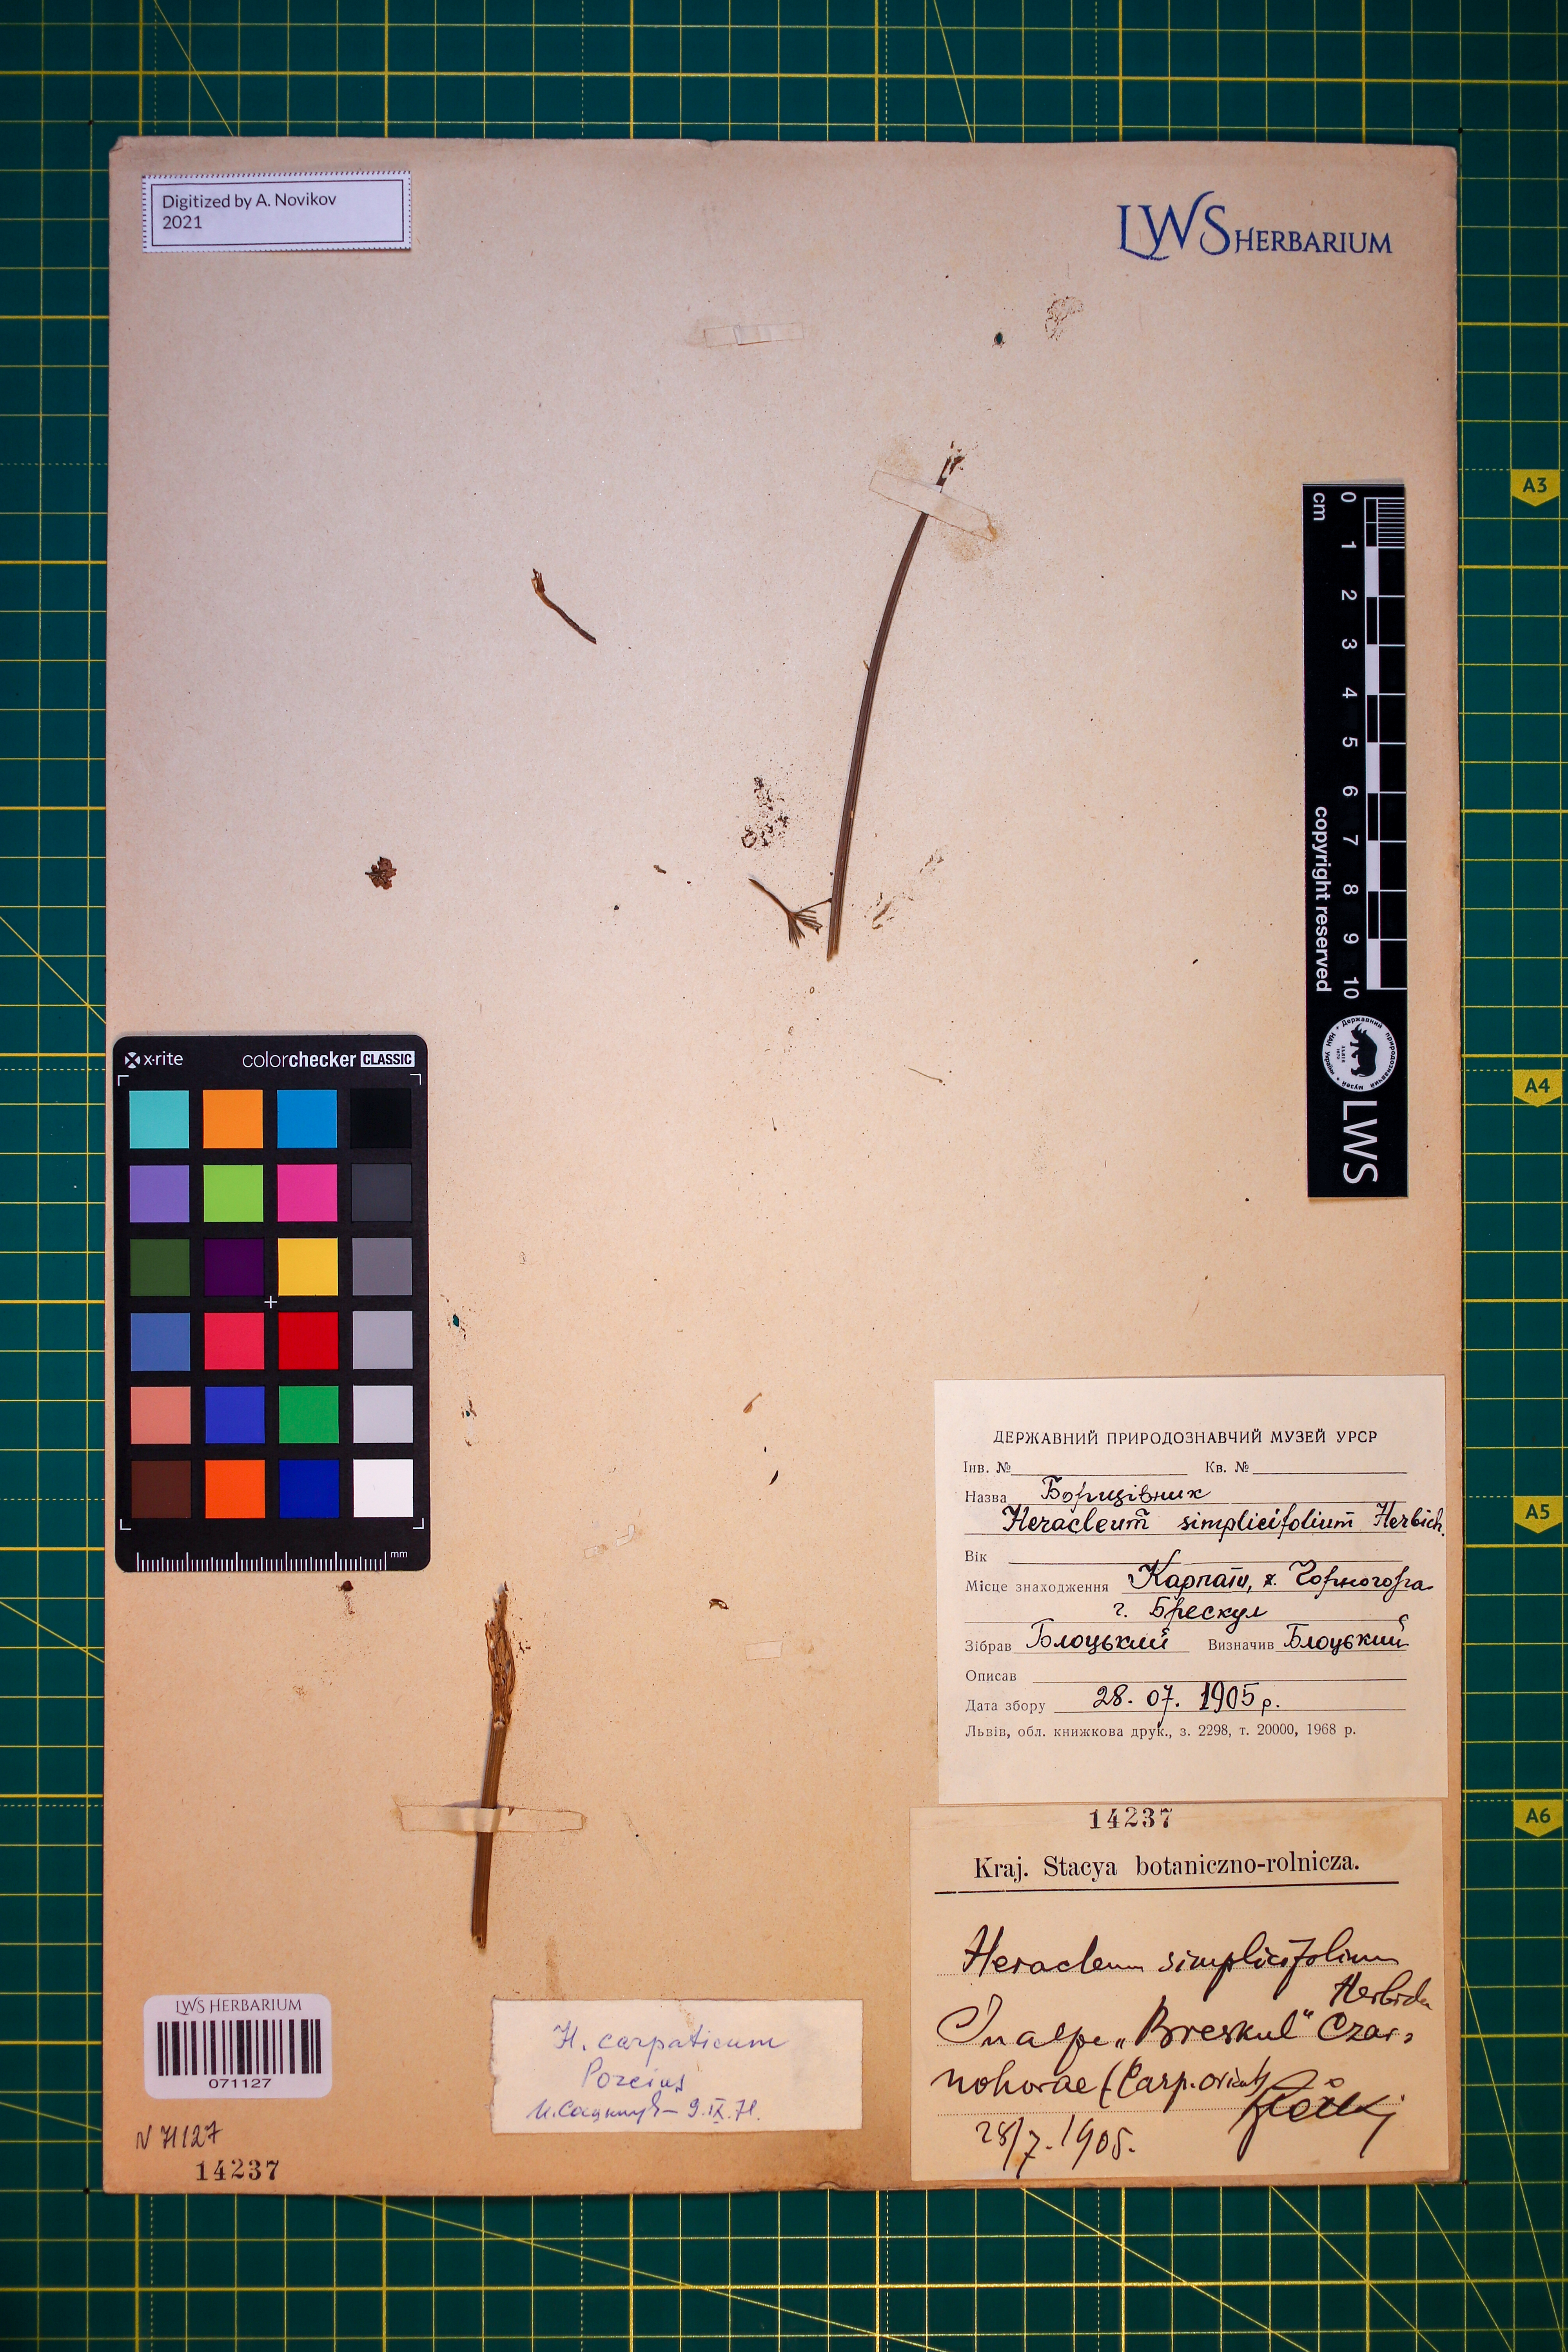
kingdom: Plantae
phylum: Tracheophyta
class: Magnoliopsida
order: Apiales
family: Apiaceae
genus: Heracleum
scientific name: Heracleum carpaticum
